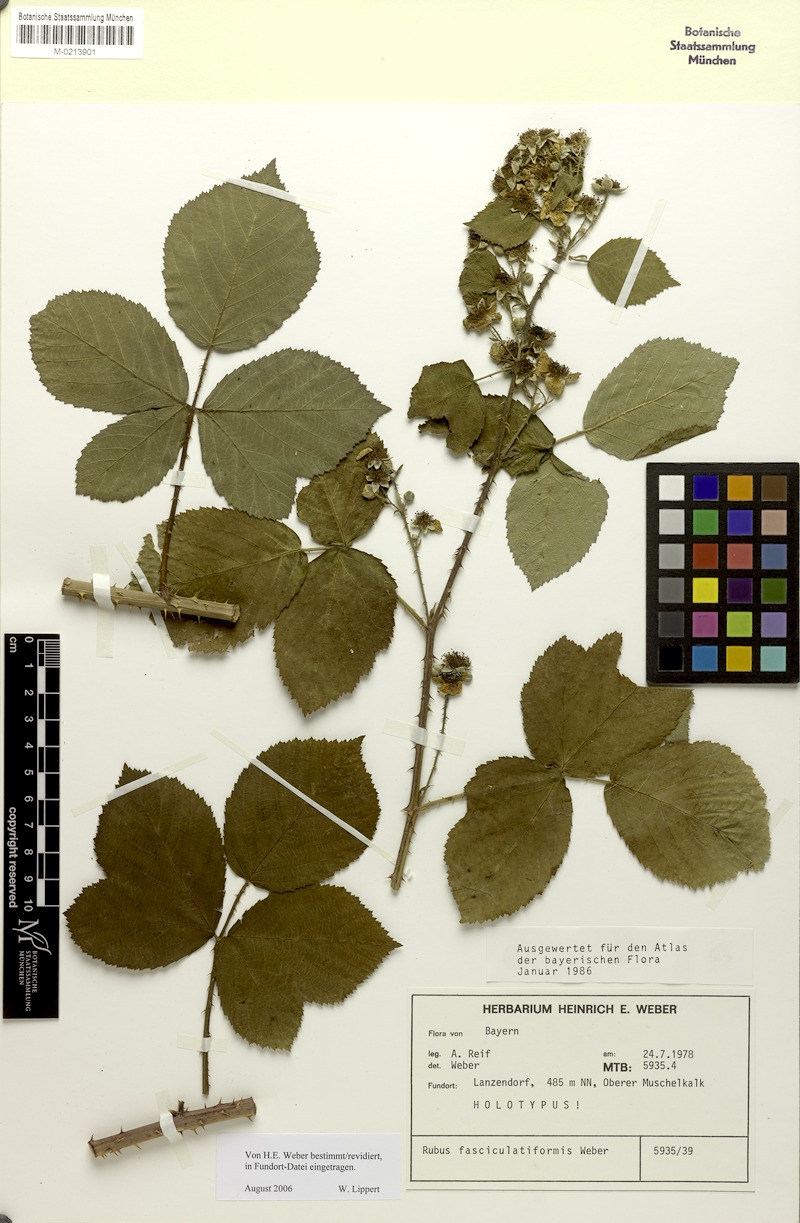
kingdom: Plantae
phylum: Tracheophyta
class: Magnoliopsida
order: Rosales
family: Rosaceae
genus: Rubus
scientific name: Rubus fasciculatiformis
